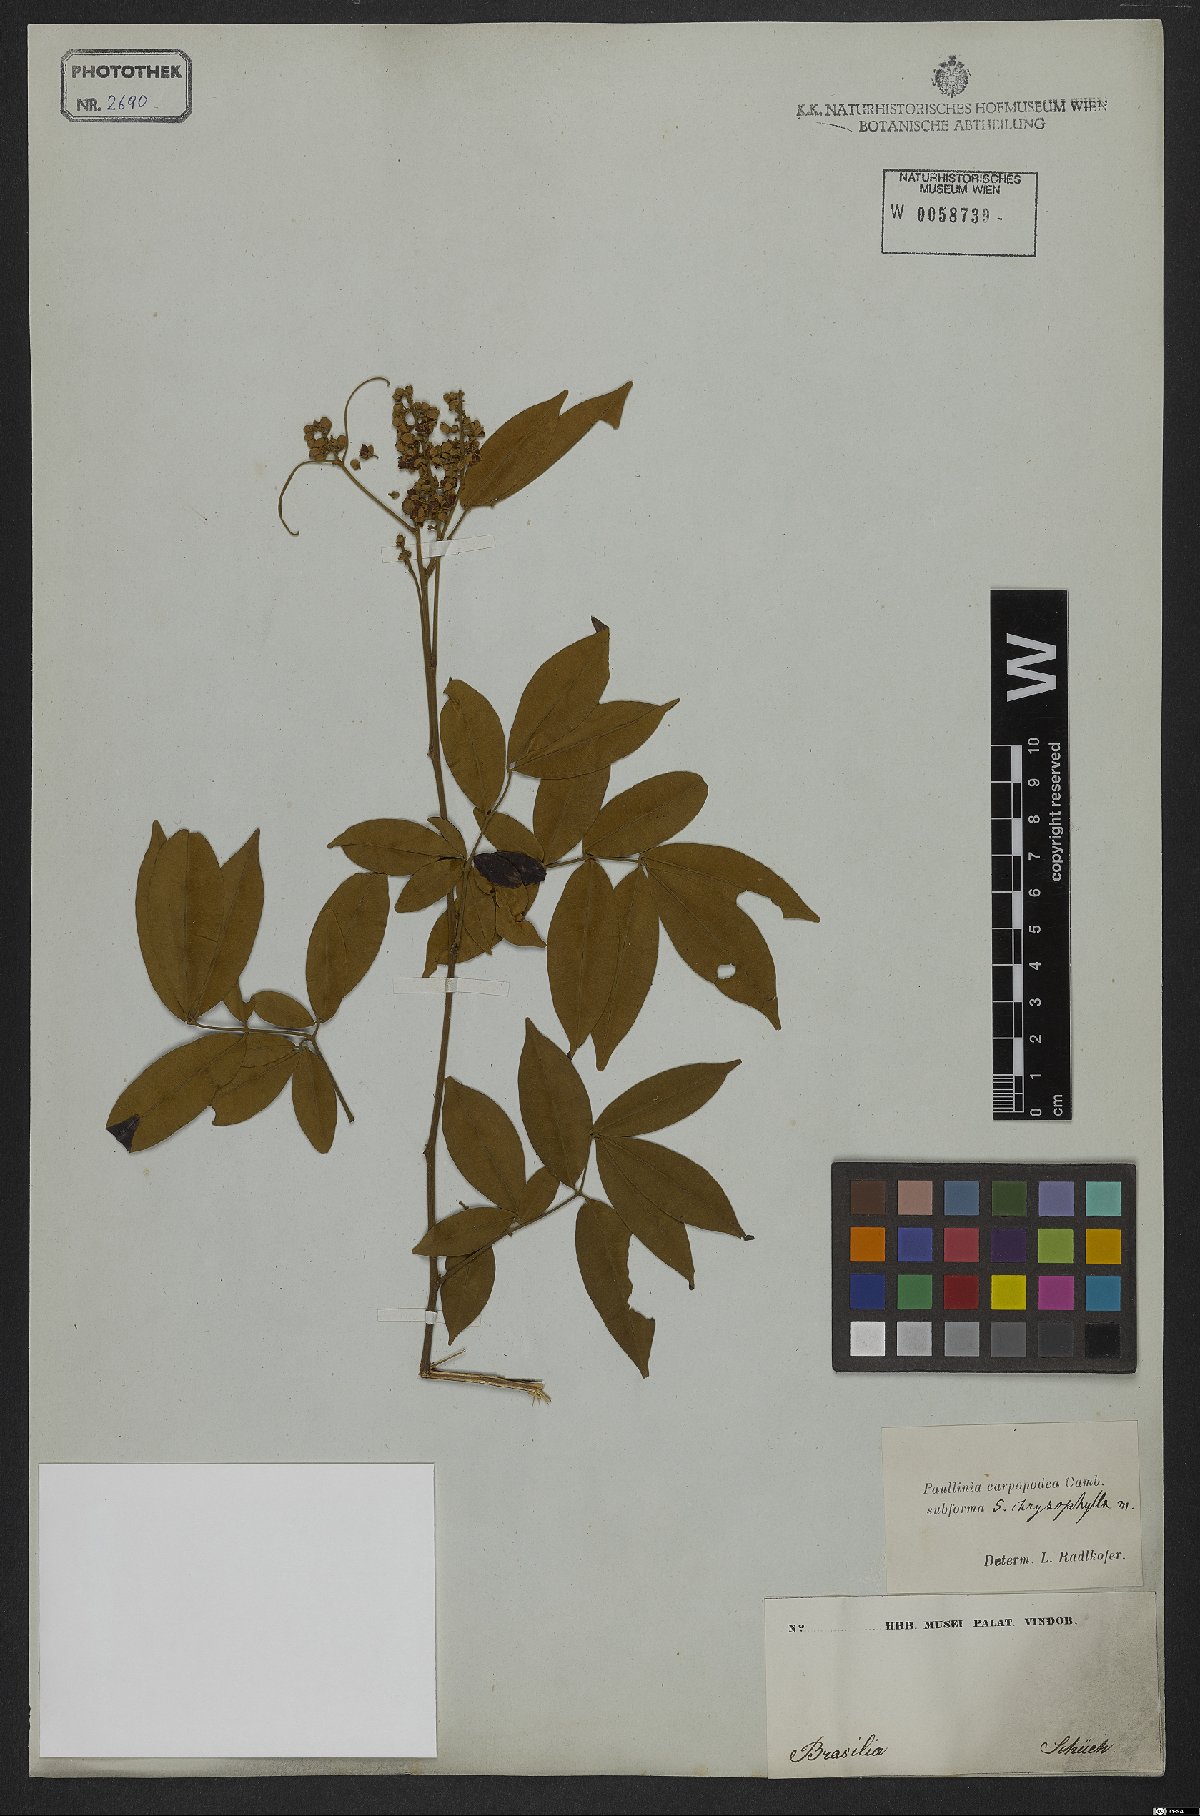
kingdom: Plantae
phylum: Tracheophyta
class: Magnoliopsida
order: Sapindales
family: Sapindaceae
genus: Paullinia
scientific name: Paullinia carpopoda
